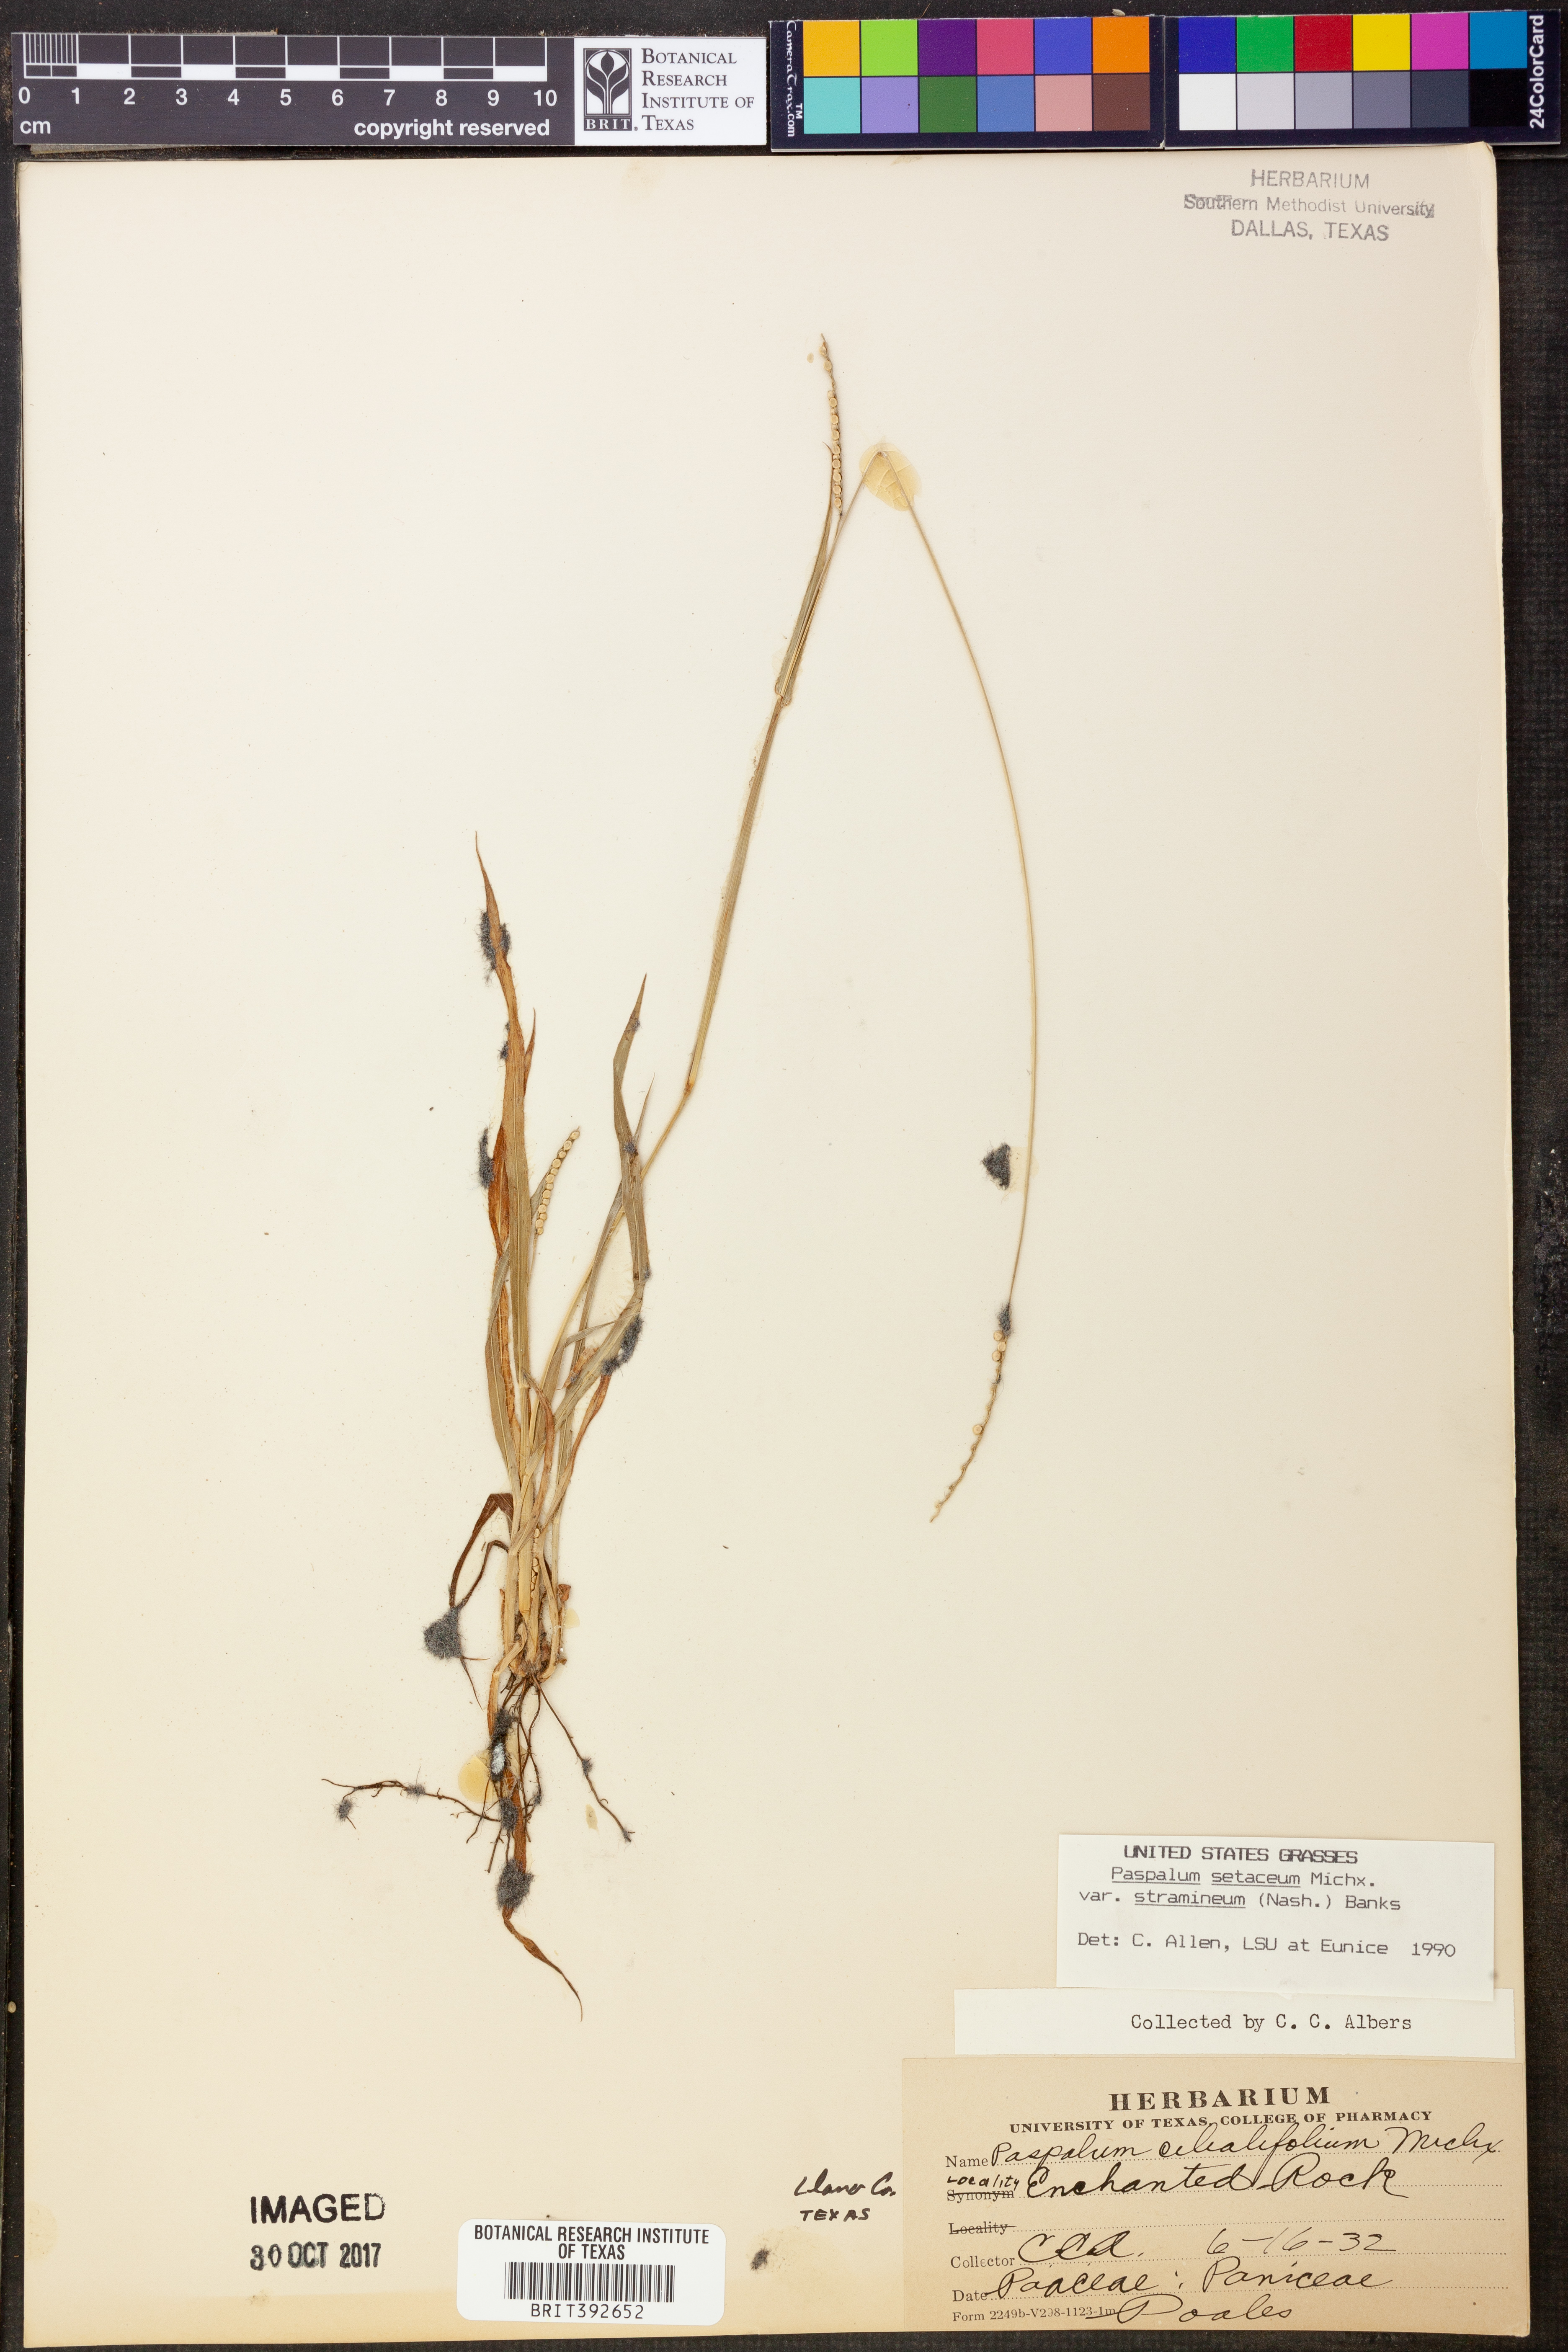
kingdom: Plantae
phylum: Tracheophyta
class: Liliopsida
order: Poales
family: Poaceae
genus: Paspalum
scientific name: Paspalum setaceum
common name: Slender paspalum
